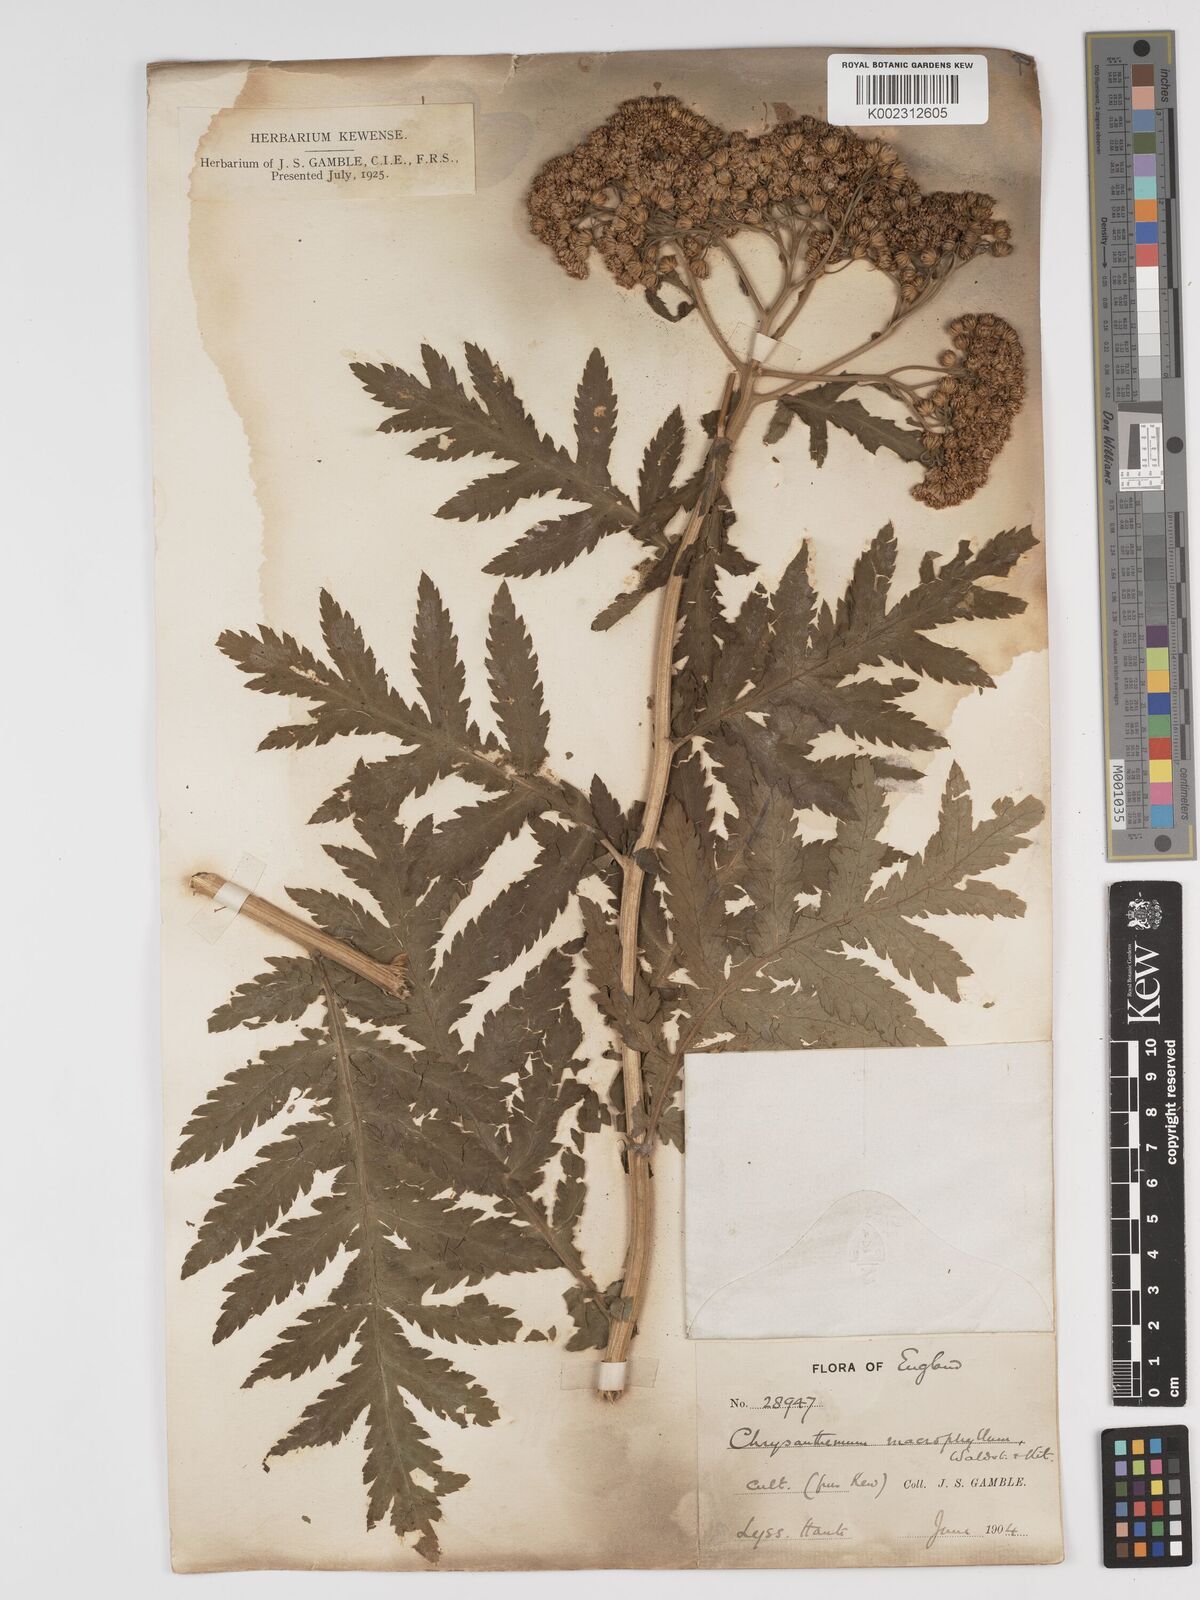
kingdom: Plantae
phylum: Tracheophyta
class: Magnoliopsida
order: Asterales
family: Asteraceae
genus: Tanacetum
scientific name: Tanacetum macrophyllum
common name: Rayed tansy
